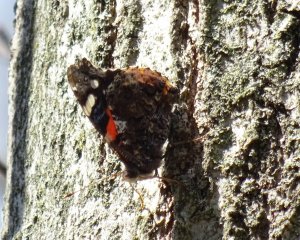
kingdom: Animalia
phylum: Arthropoda
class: Insecta
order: Lepidoptera
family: Nymphalidae
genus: Vanessa
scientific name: Vanessa atalanta
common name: Red Admiral
